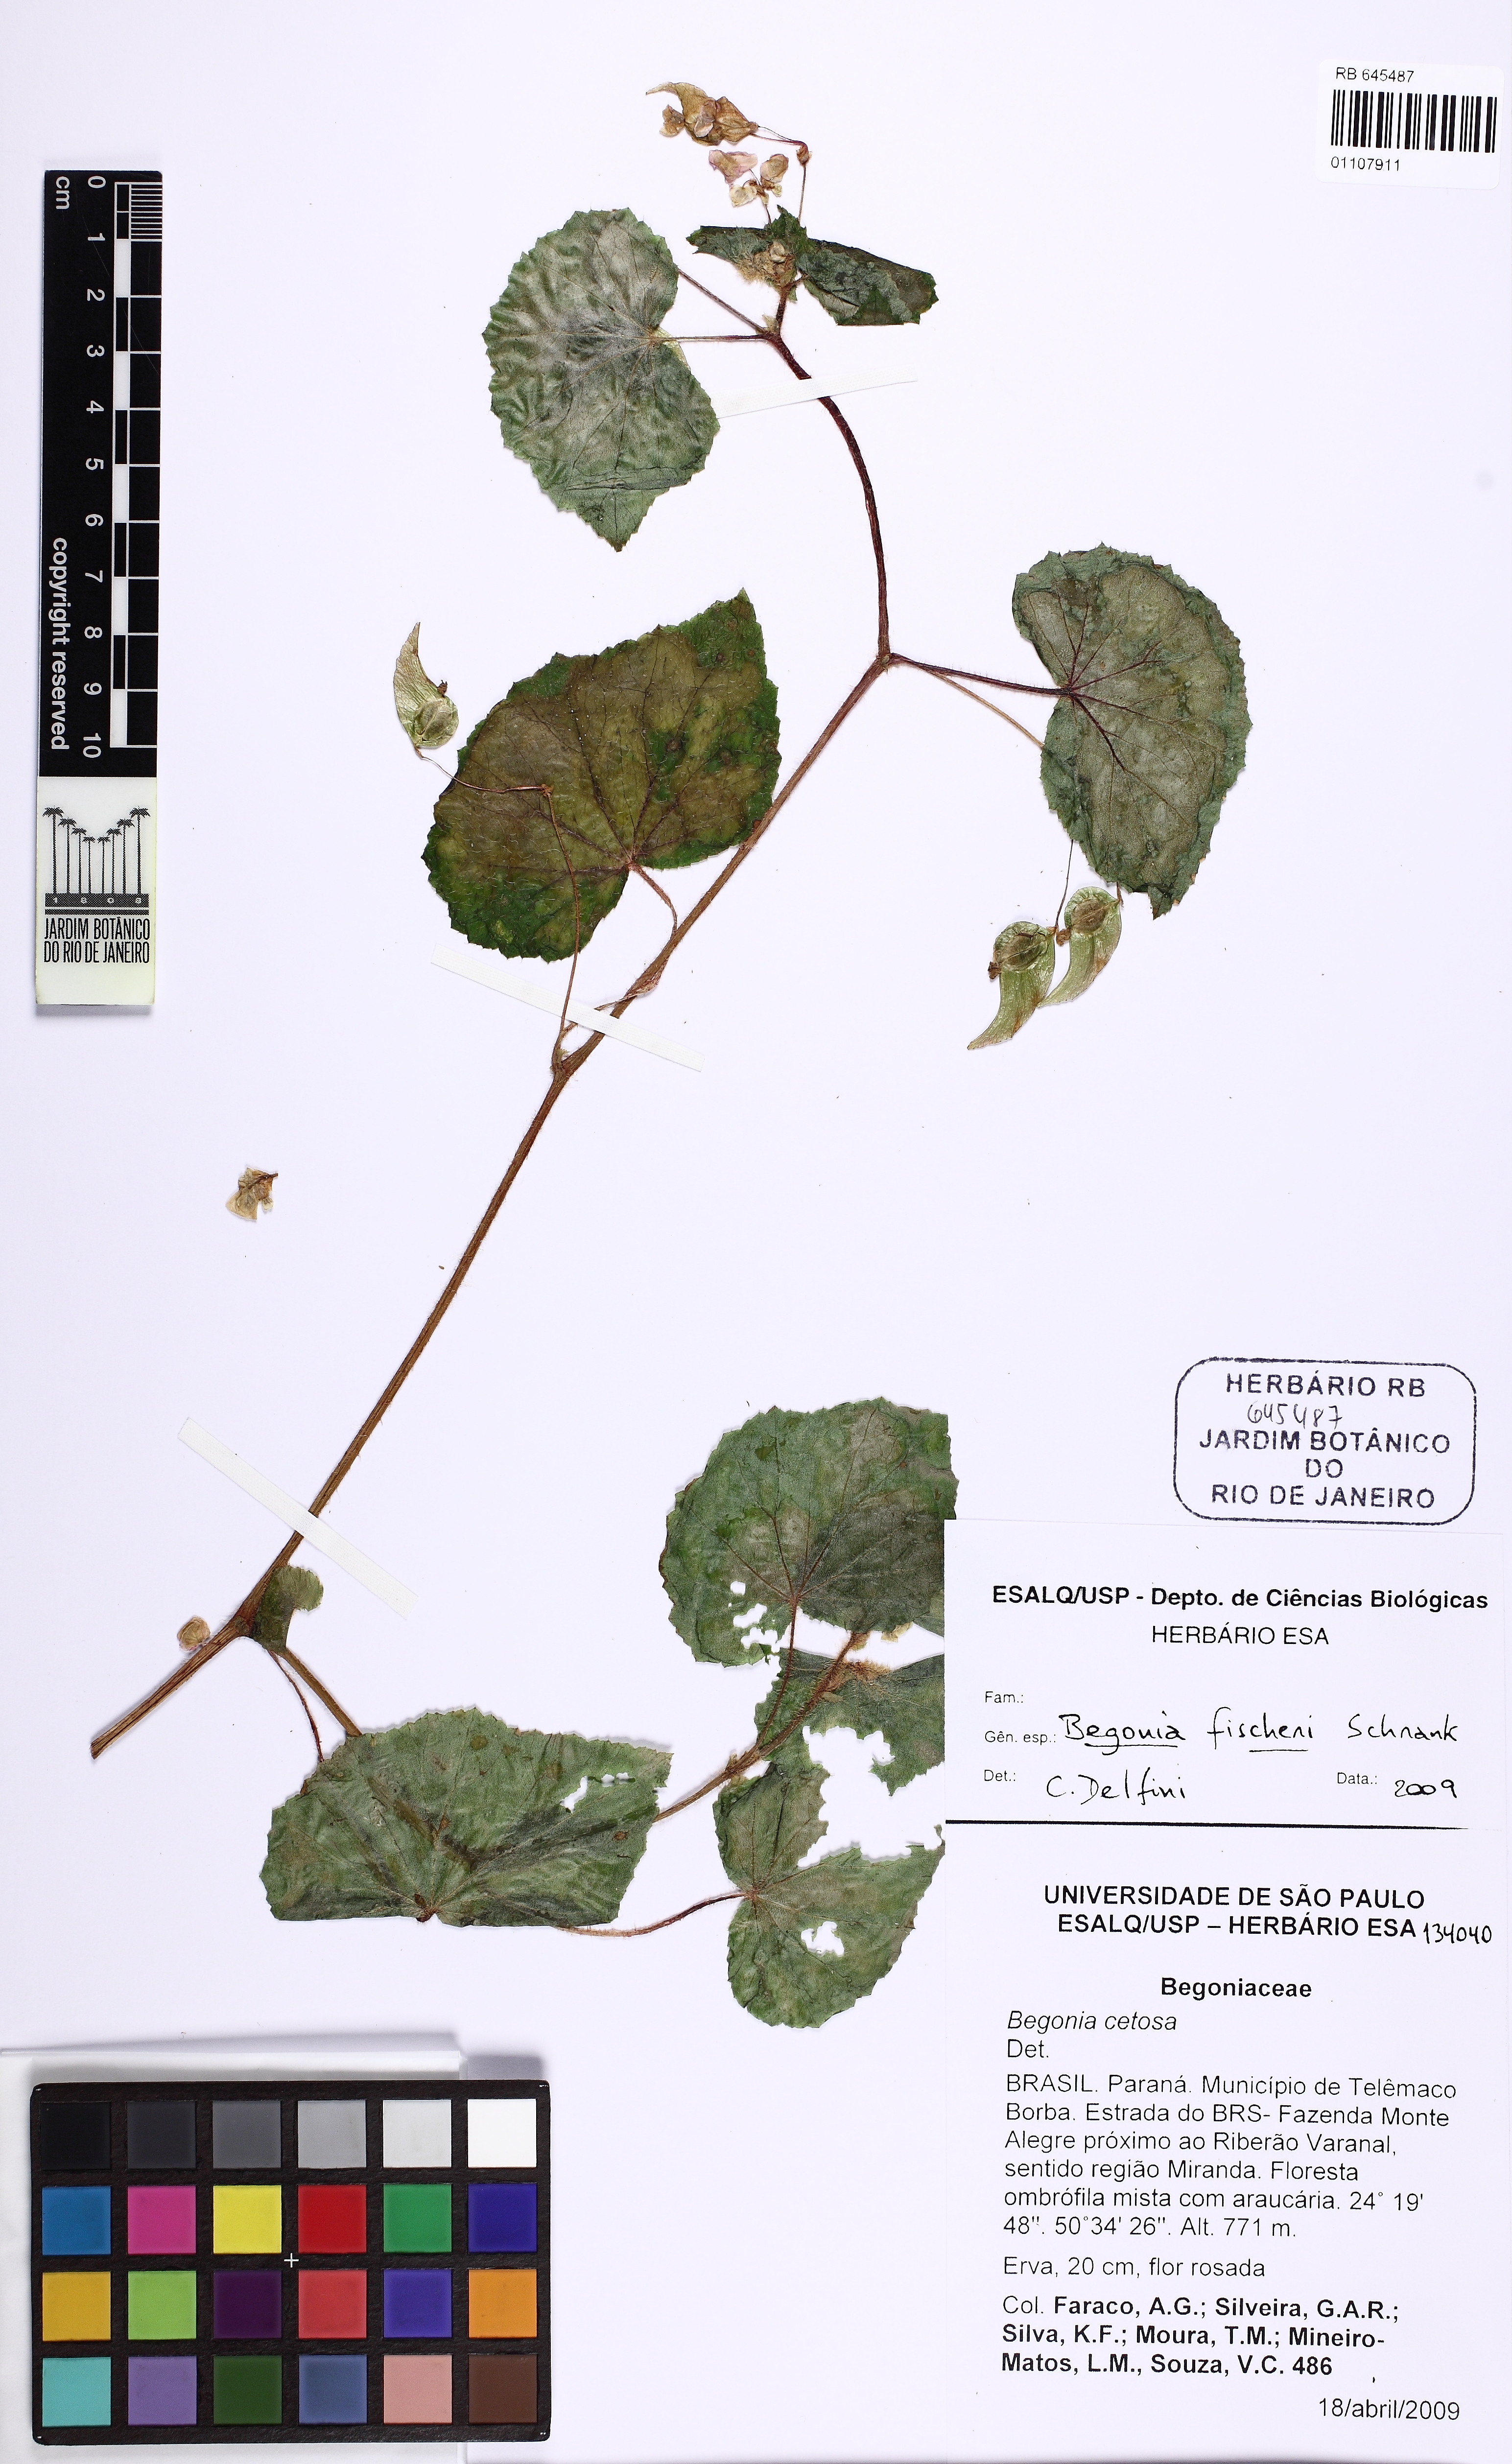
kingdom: Plantae
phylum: Tracheophyta
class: Magnoliopsida
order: Cucurbitales
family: Begoniaceae
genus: Begonia
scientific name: Begonia fischeri
